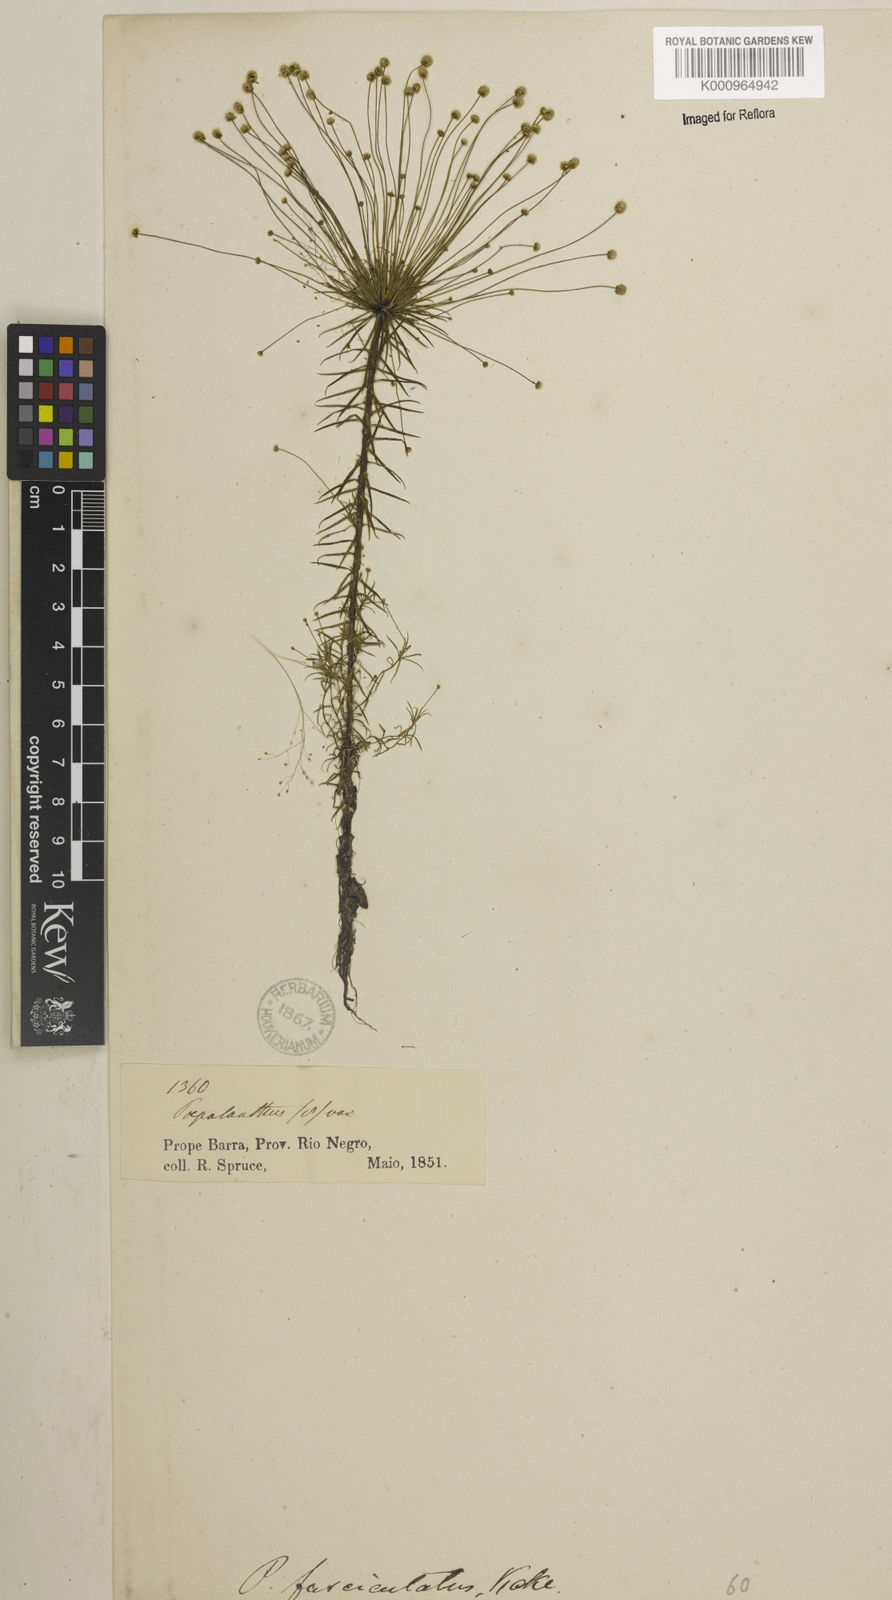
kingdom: Plantae
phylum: Tracheophyta
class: Liliopsida
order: Poales
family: Eriocaulaceae
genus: Paepalanthus
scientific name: Paepalanthus fasciculatus
